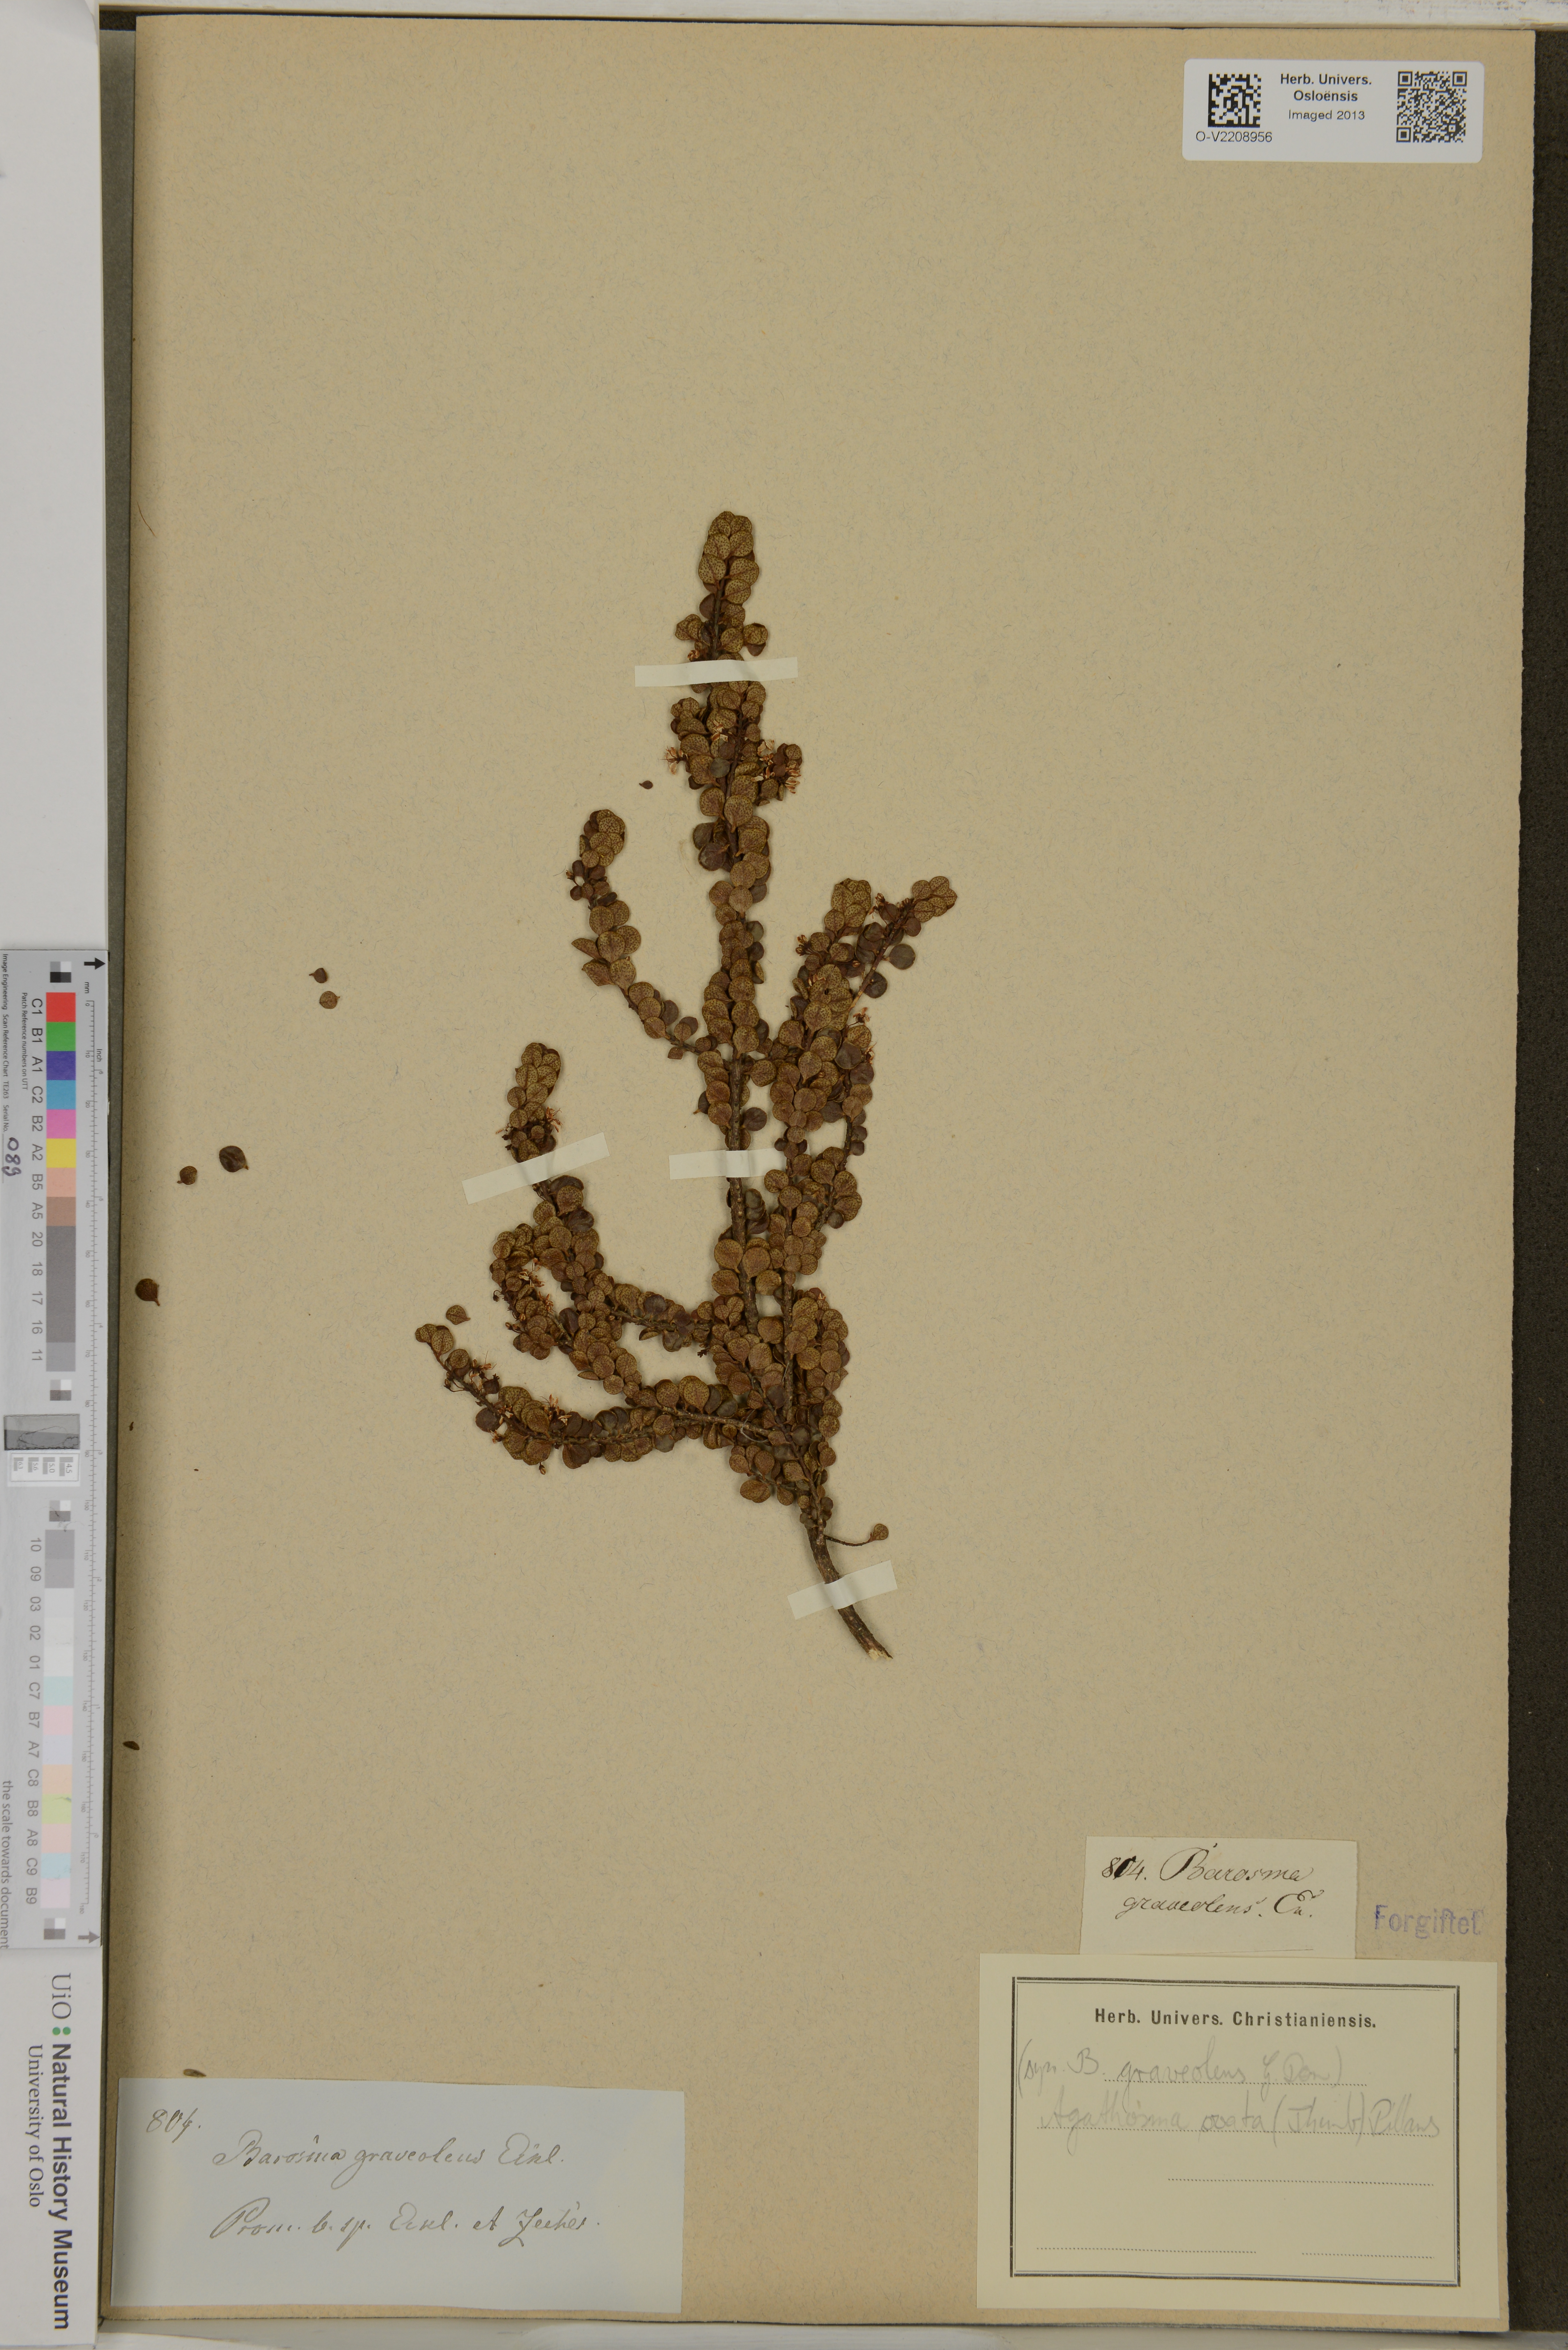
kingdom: Plantae
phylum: Tracheophyta
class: Magnoliopsida
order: Sapindales
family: Rutaceae
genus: Agathosma
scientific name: Agathosma collina
